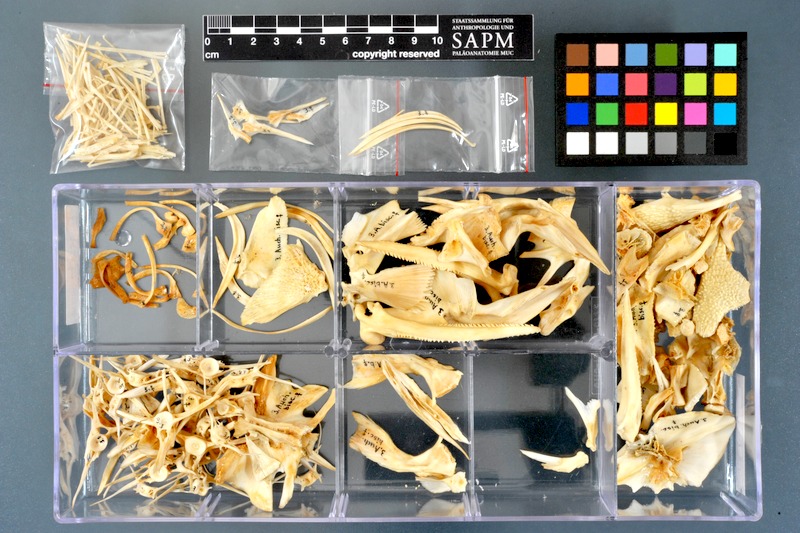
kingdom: Animalia
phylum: Chordata
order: Siluriformes
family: Claroteidae
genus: Auchenoglanis
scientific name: Auchenoglanis occidentalis
